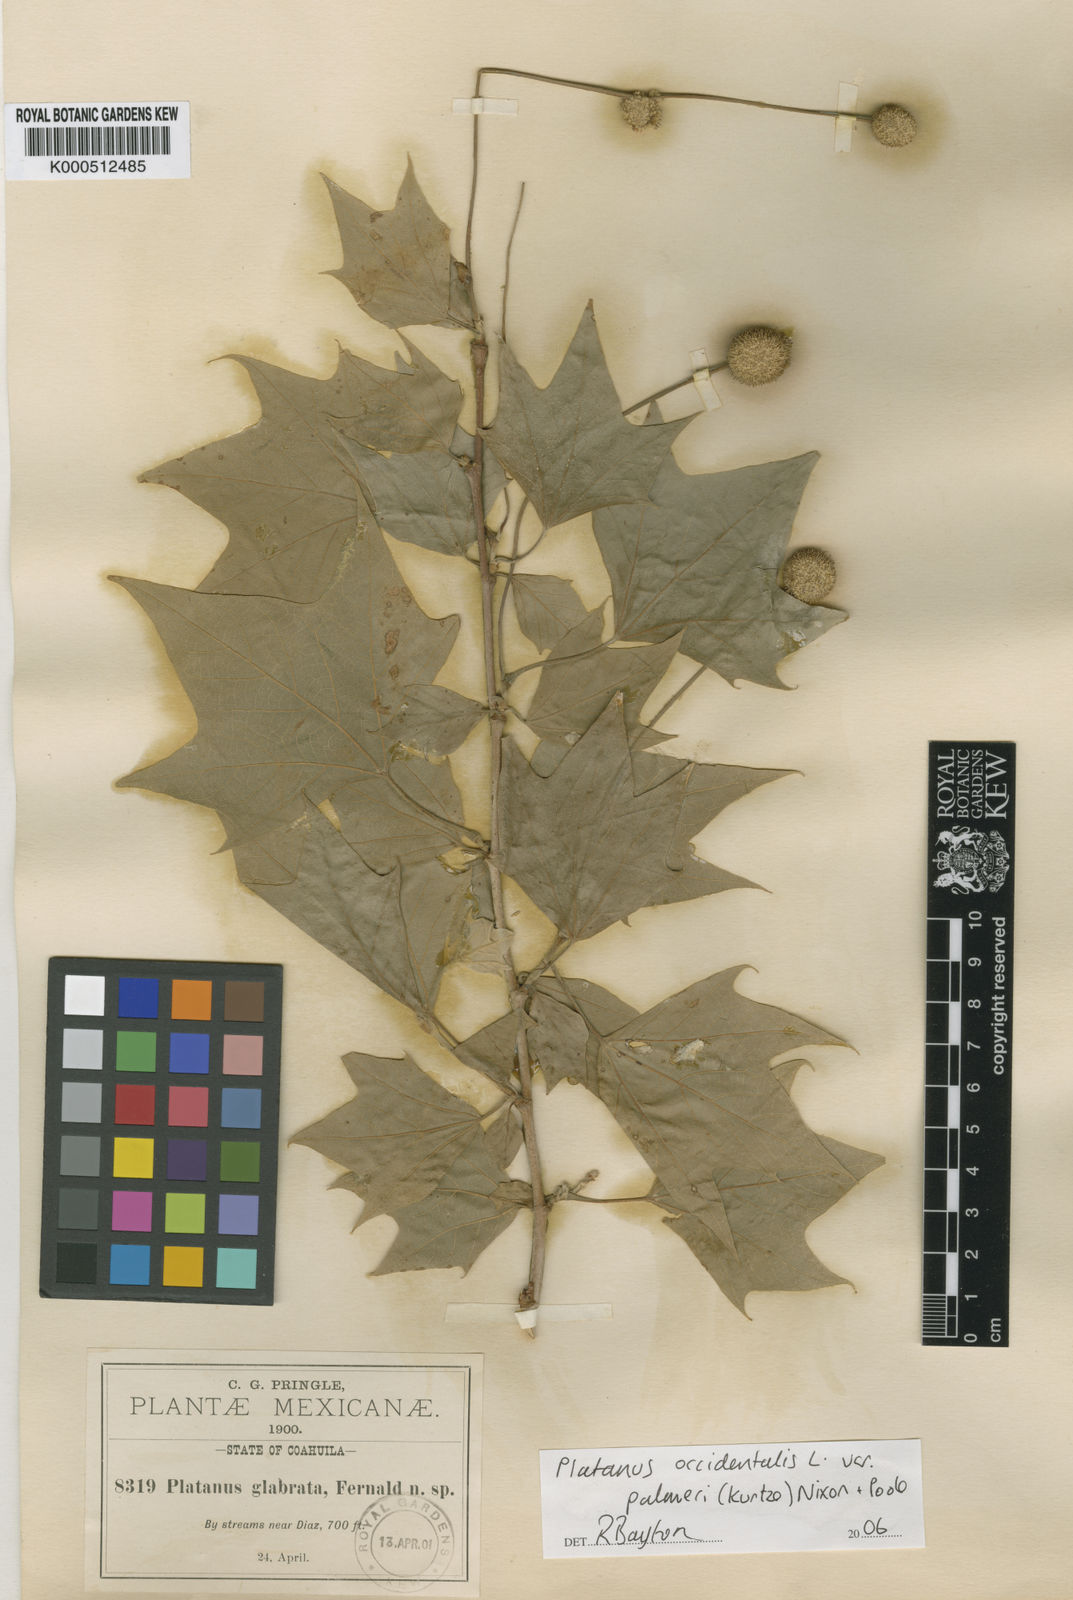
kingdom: Plantae
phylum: Tracheophyta
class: Magnoliopsida
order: Proteales
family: Platanaceae
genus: Platanus
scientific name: Platanus occidentalis
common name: American sycamore
